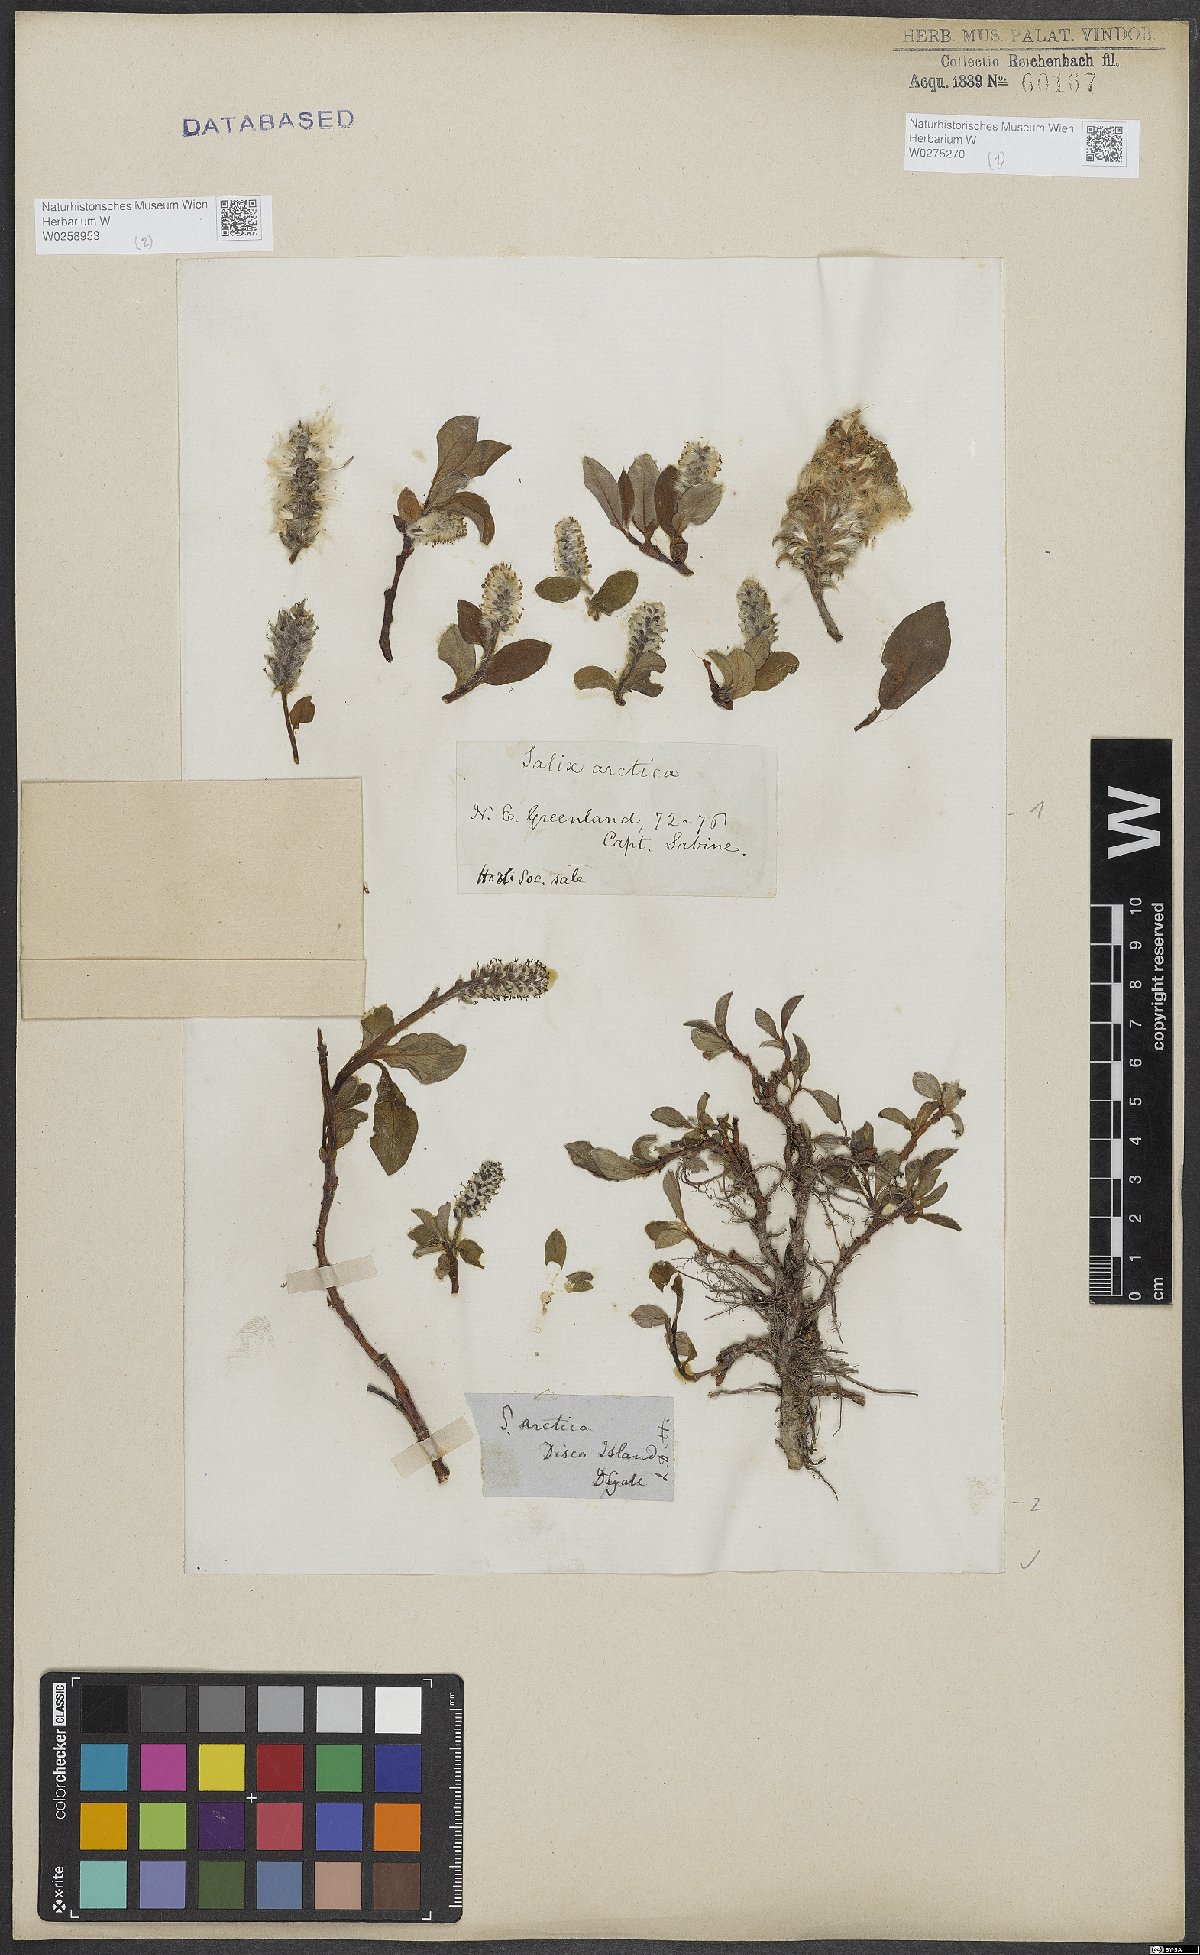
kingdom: Plantae
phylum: Tracheophyta
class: Magnoliopsida
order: Malpighiales
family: Salicaceae
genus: Salix
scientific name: Salix arctica
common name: Arctic willow
